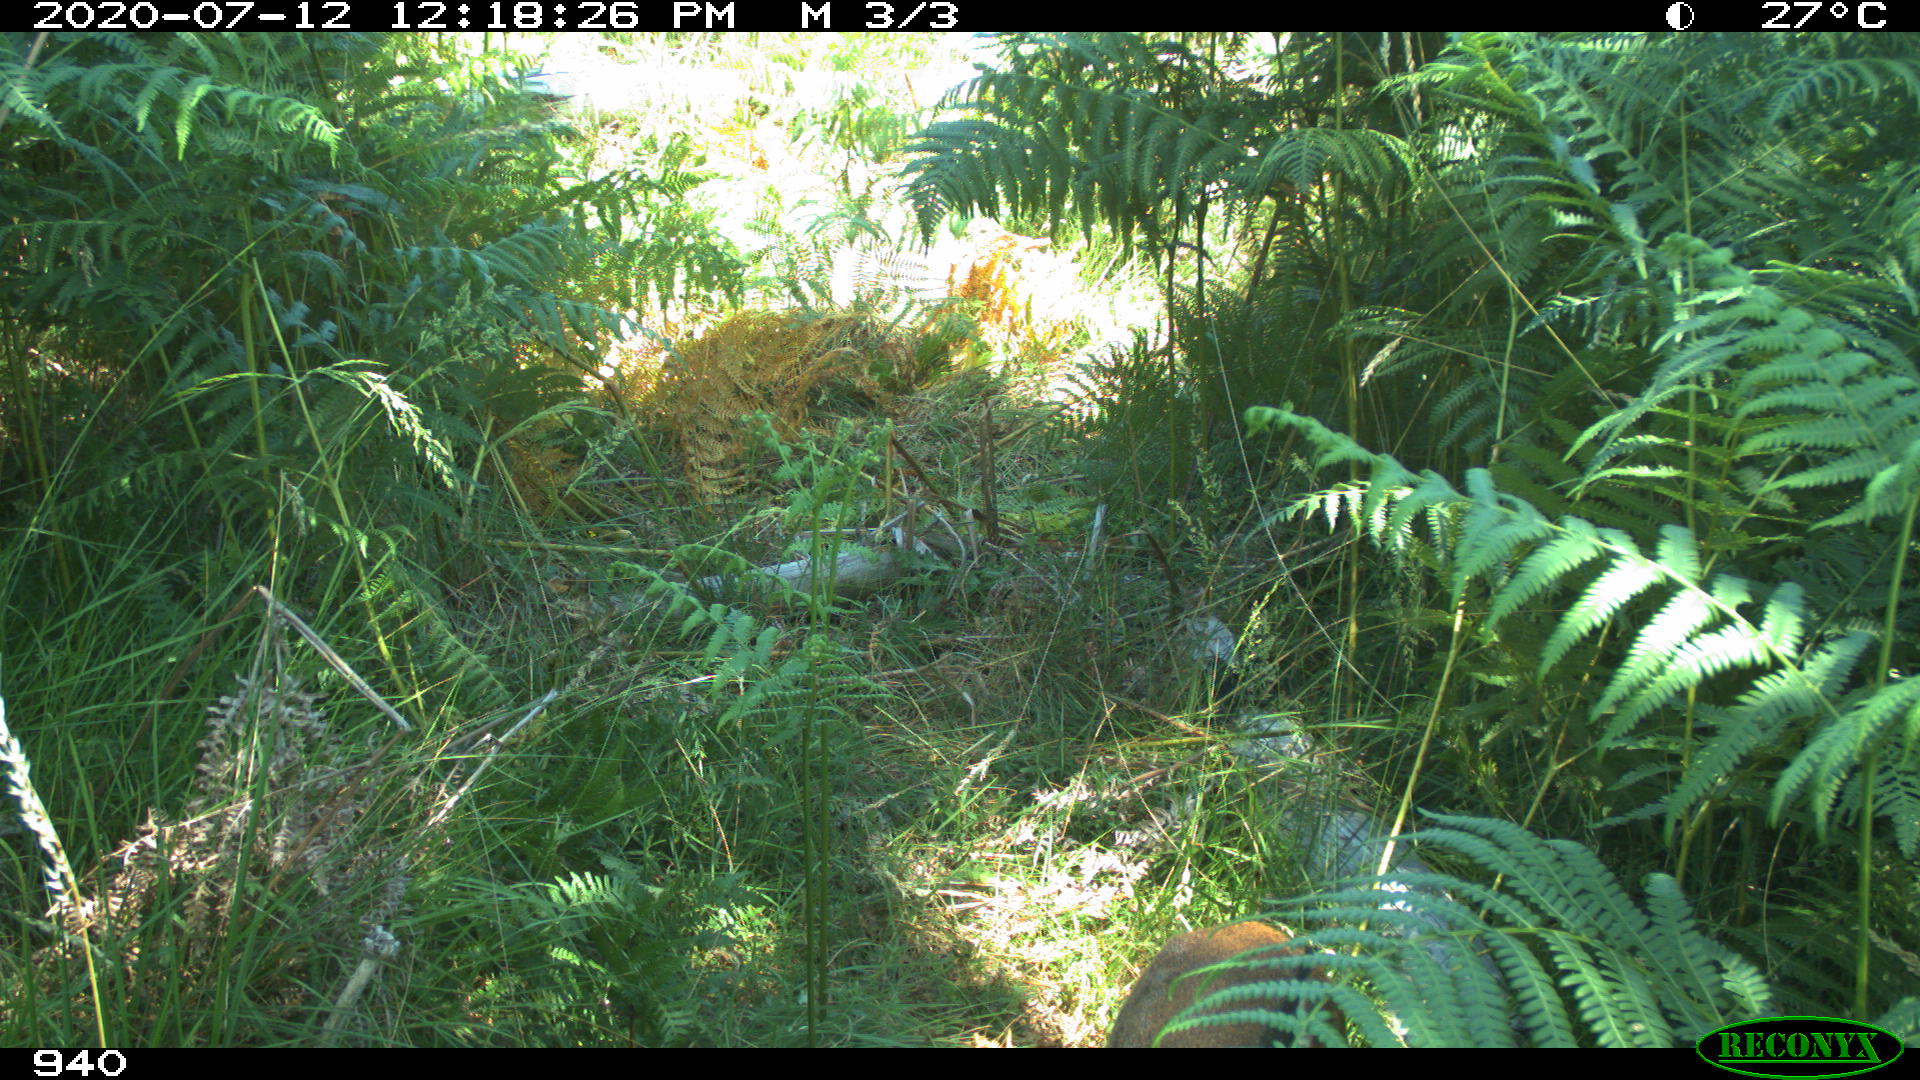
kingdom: Animalia
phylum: Chordata
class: Mammalia
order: Artiodactyla
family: Cervidae
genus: Capreolus
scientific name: Capreolus capreolus
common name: Western roe deer
